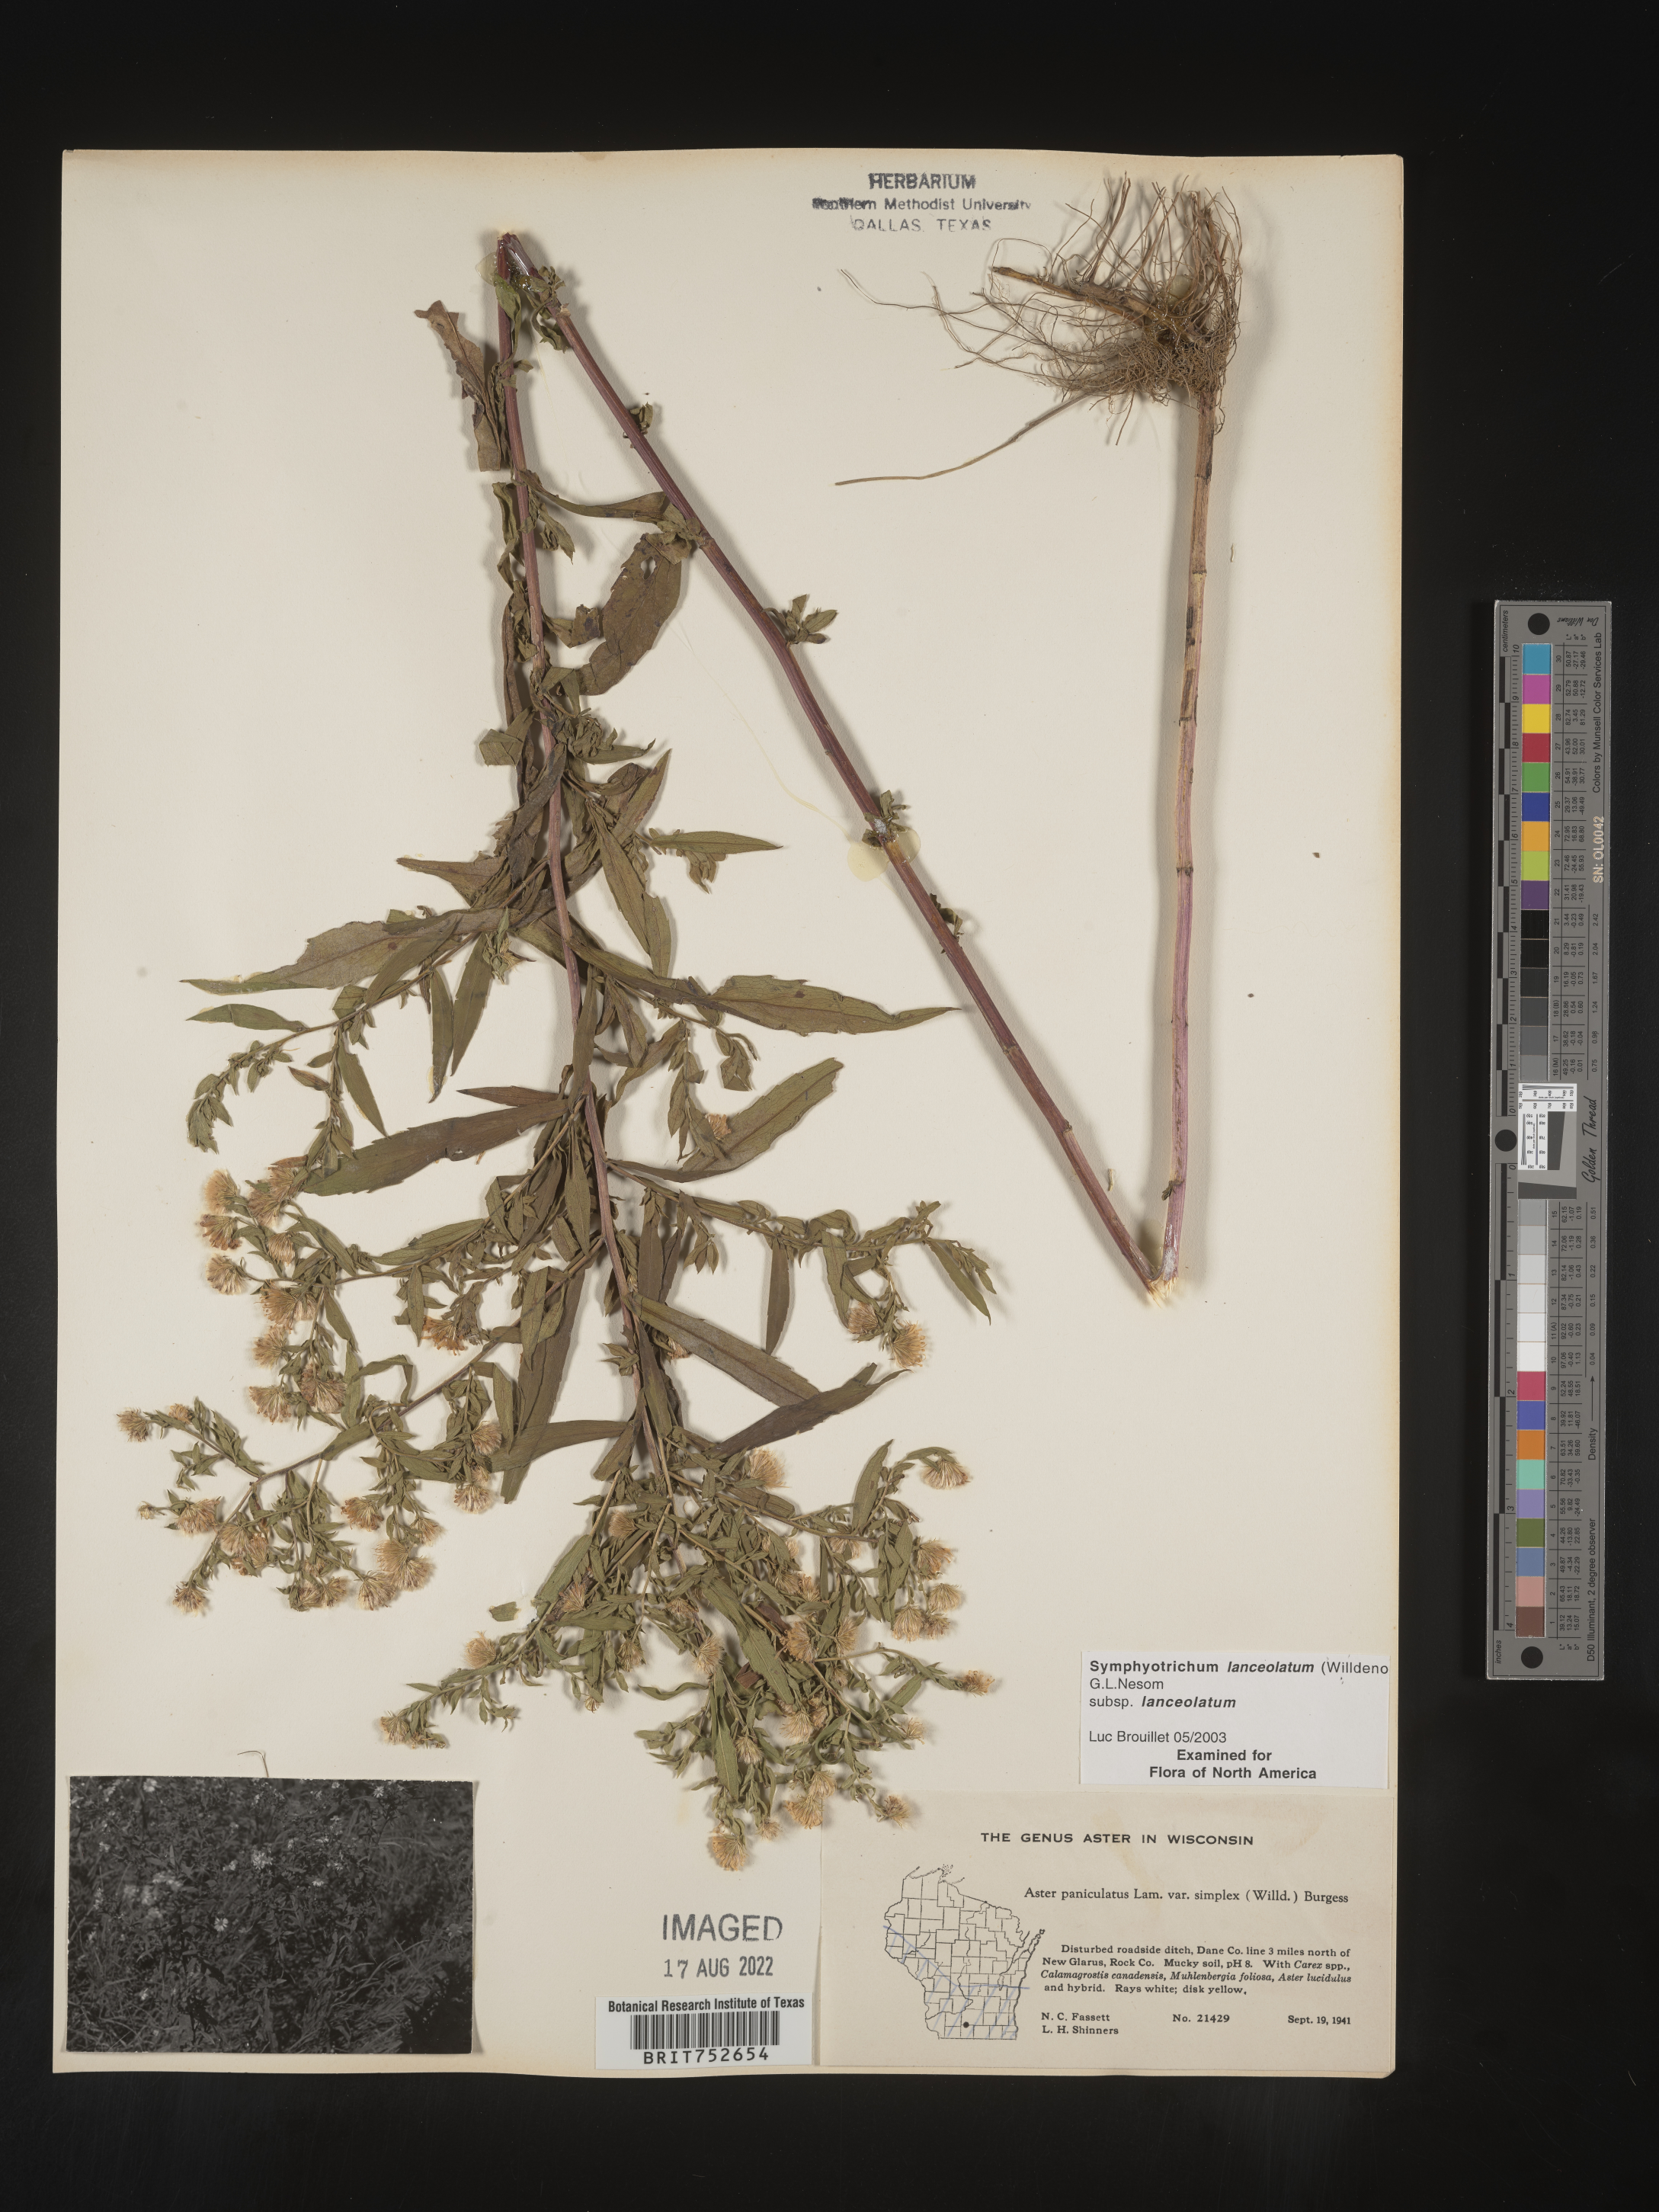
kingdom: Plantae
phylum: Tracheophyta
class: Magnoliopsida
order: Asterales
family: Asteraceae
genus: Symphyotrichum
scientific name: Symphyotrichum lanceolatum
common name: Panicled aster
